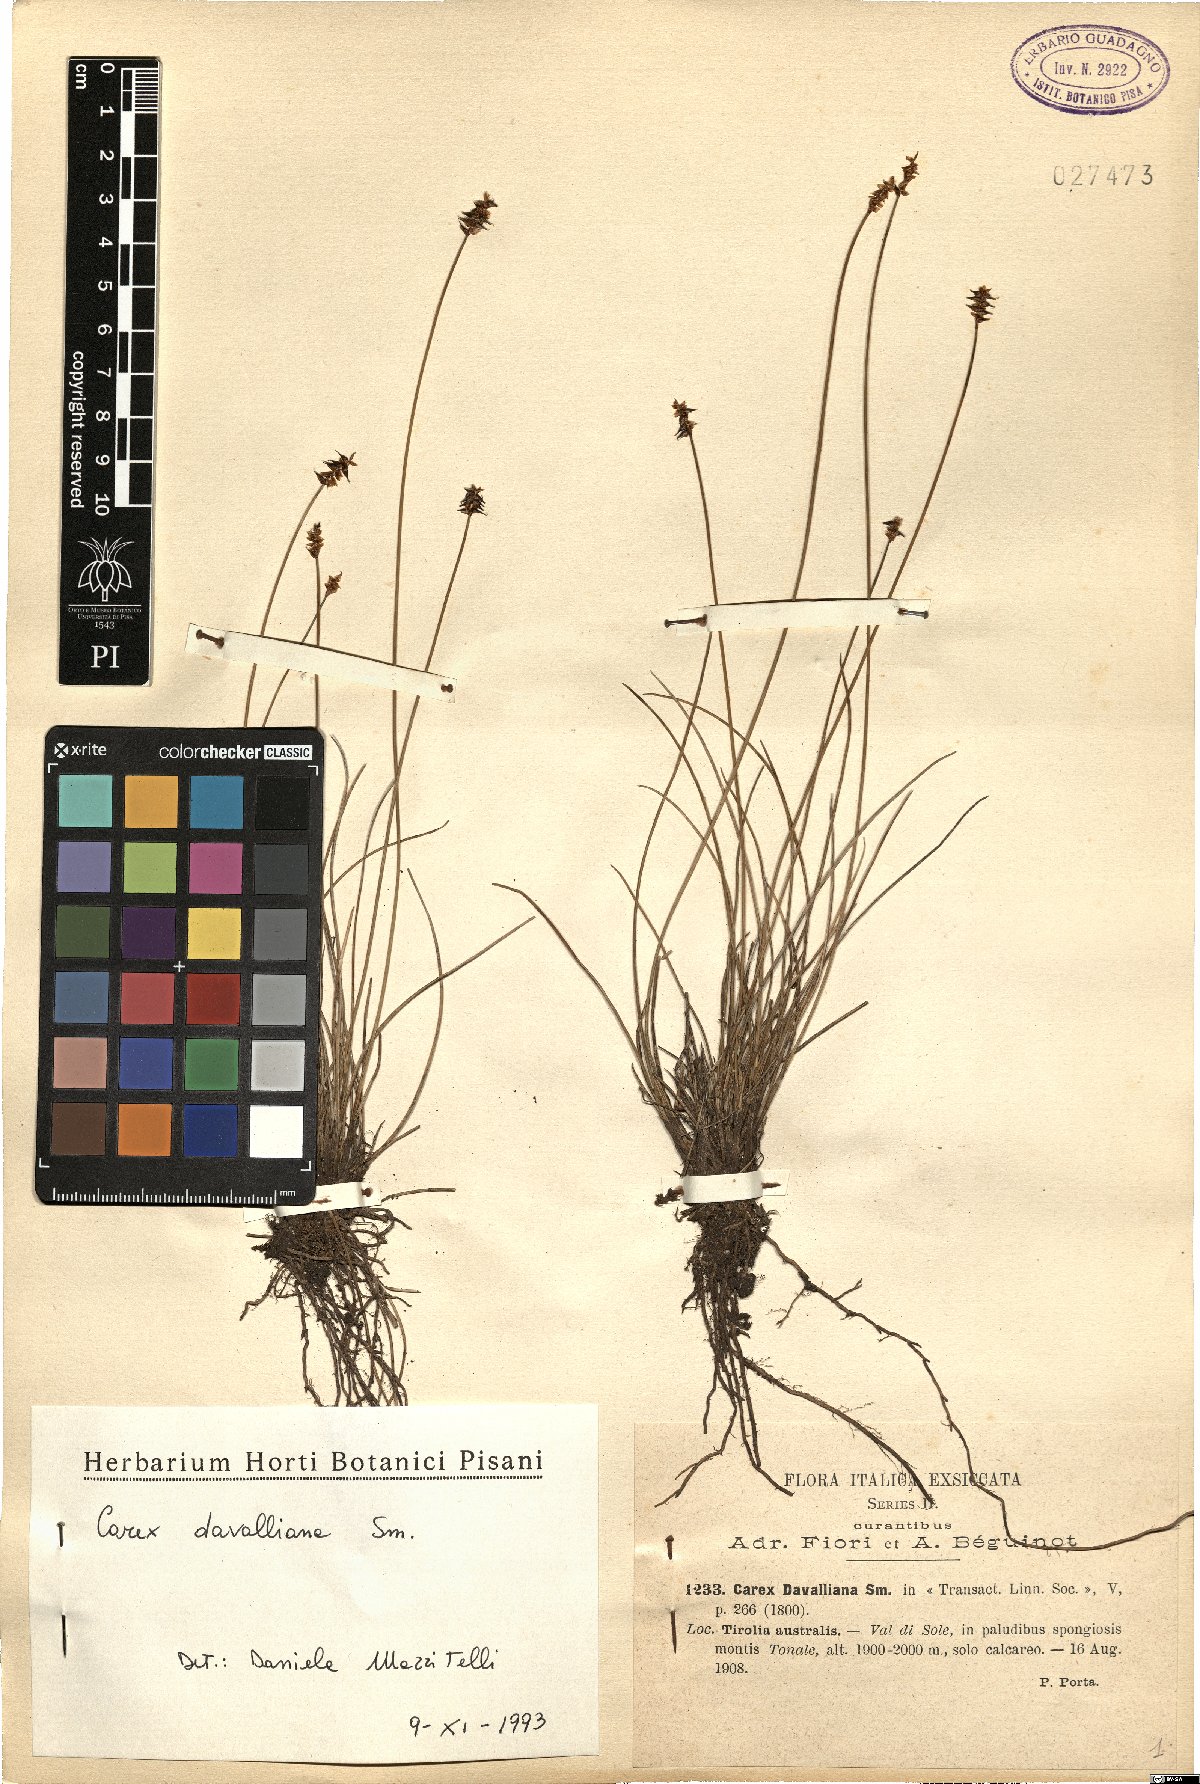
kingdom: Plantae
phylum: Tracheophyta
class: Liliopsida
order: Poales
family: Cyperaceae
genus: Carex
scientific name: Carex davalliana
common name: Davall's sedge
